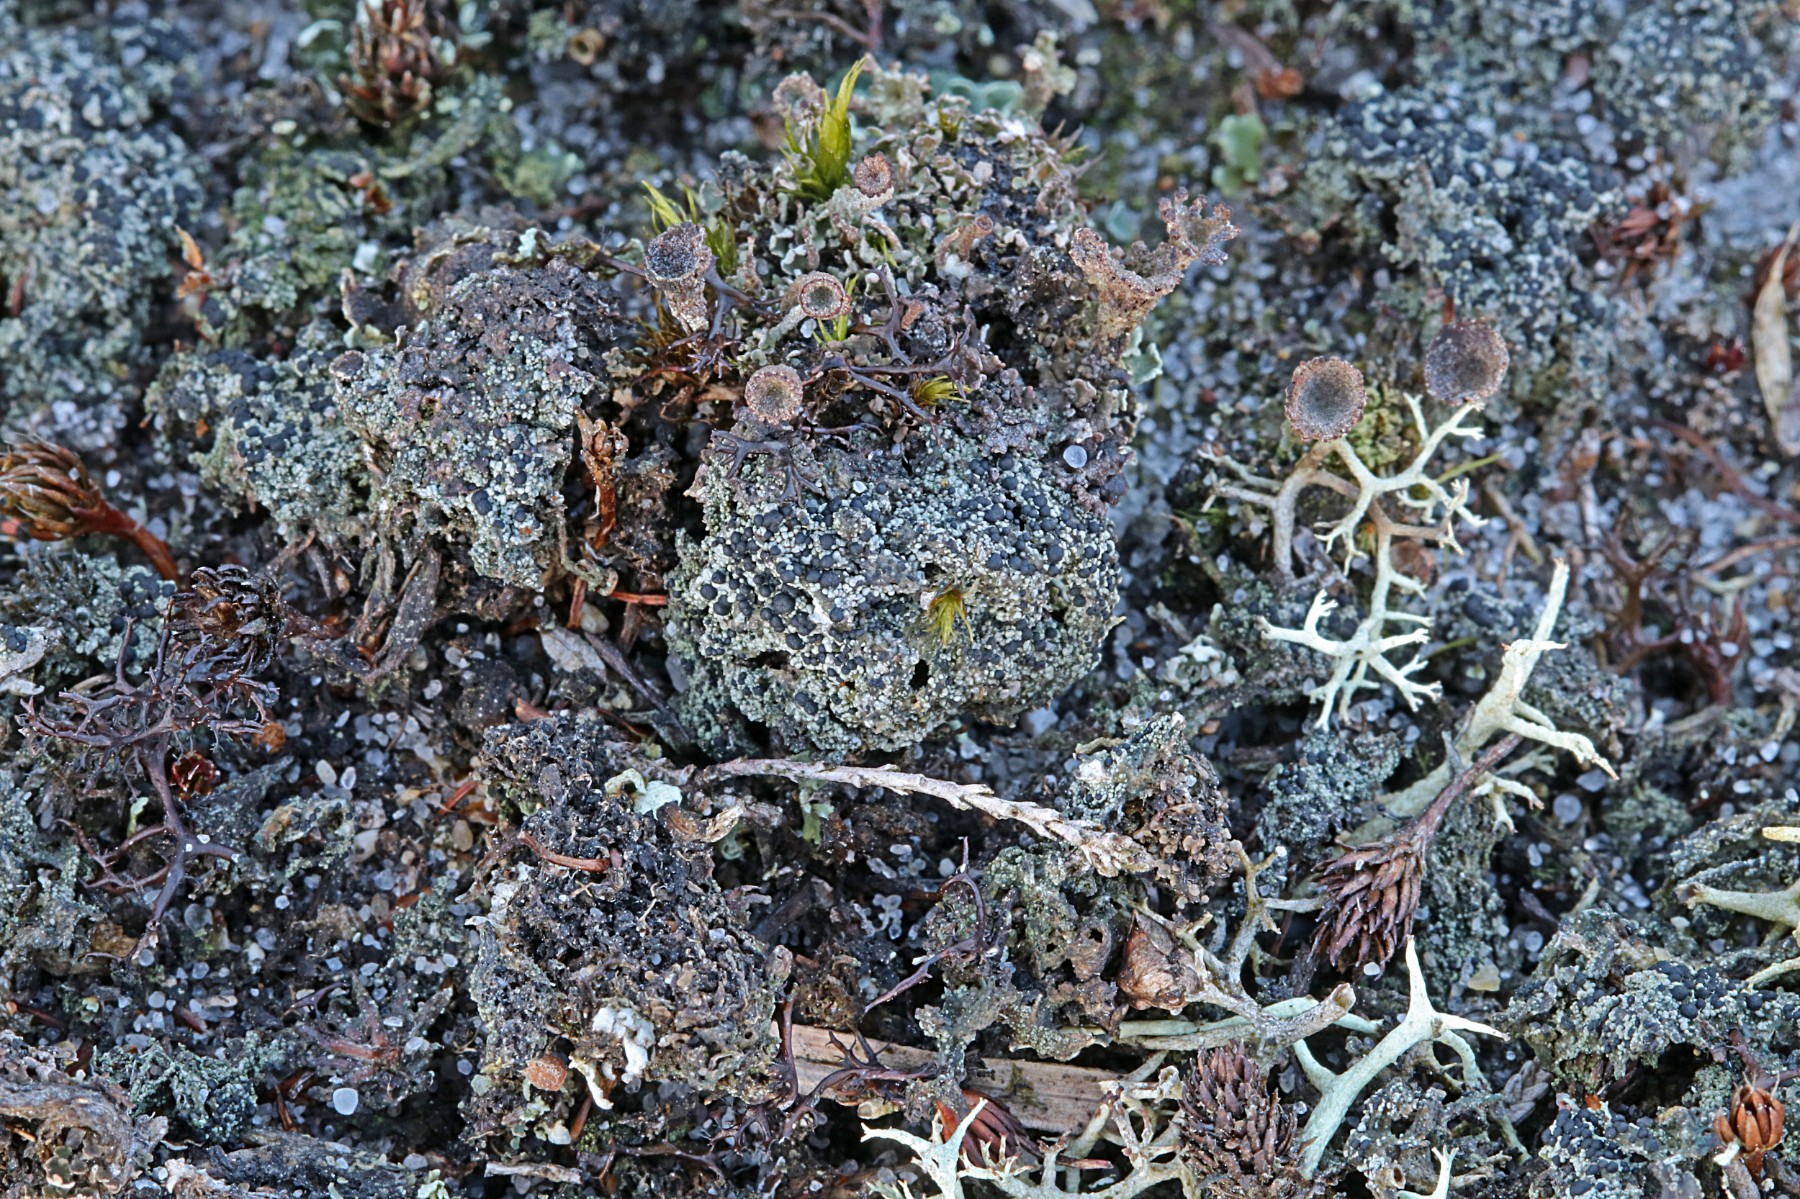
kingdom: Fungi
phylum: Ascomycota
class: Lecanoromycetes
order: Lecanorales
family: Byssolomataceae
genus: Micarea
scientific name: Micarea lignaria
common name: tørve-knaplav
